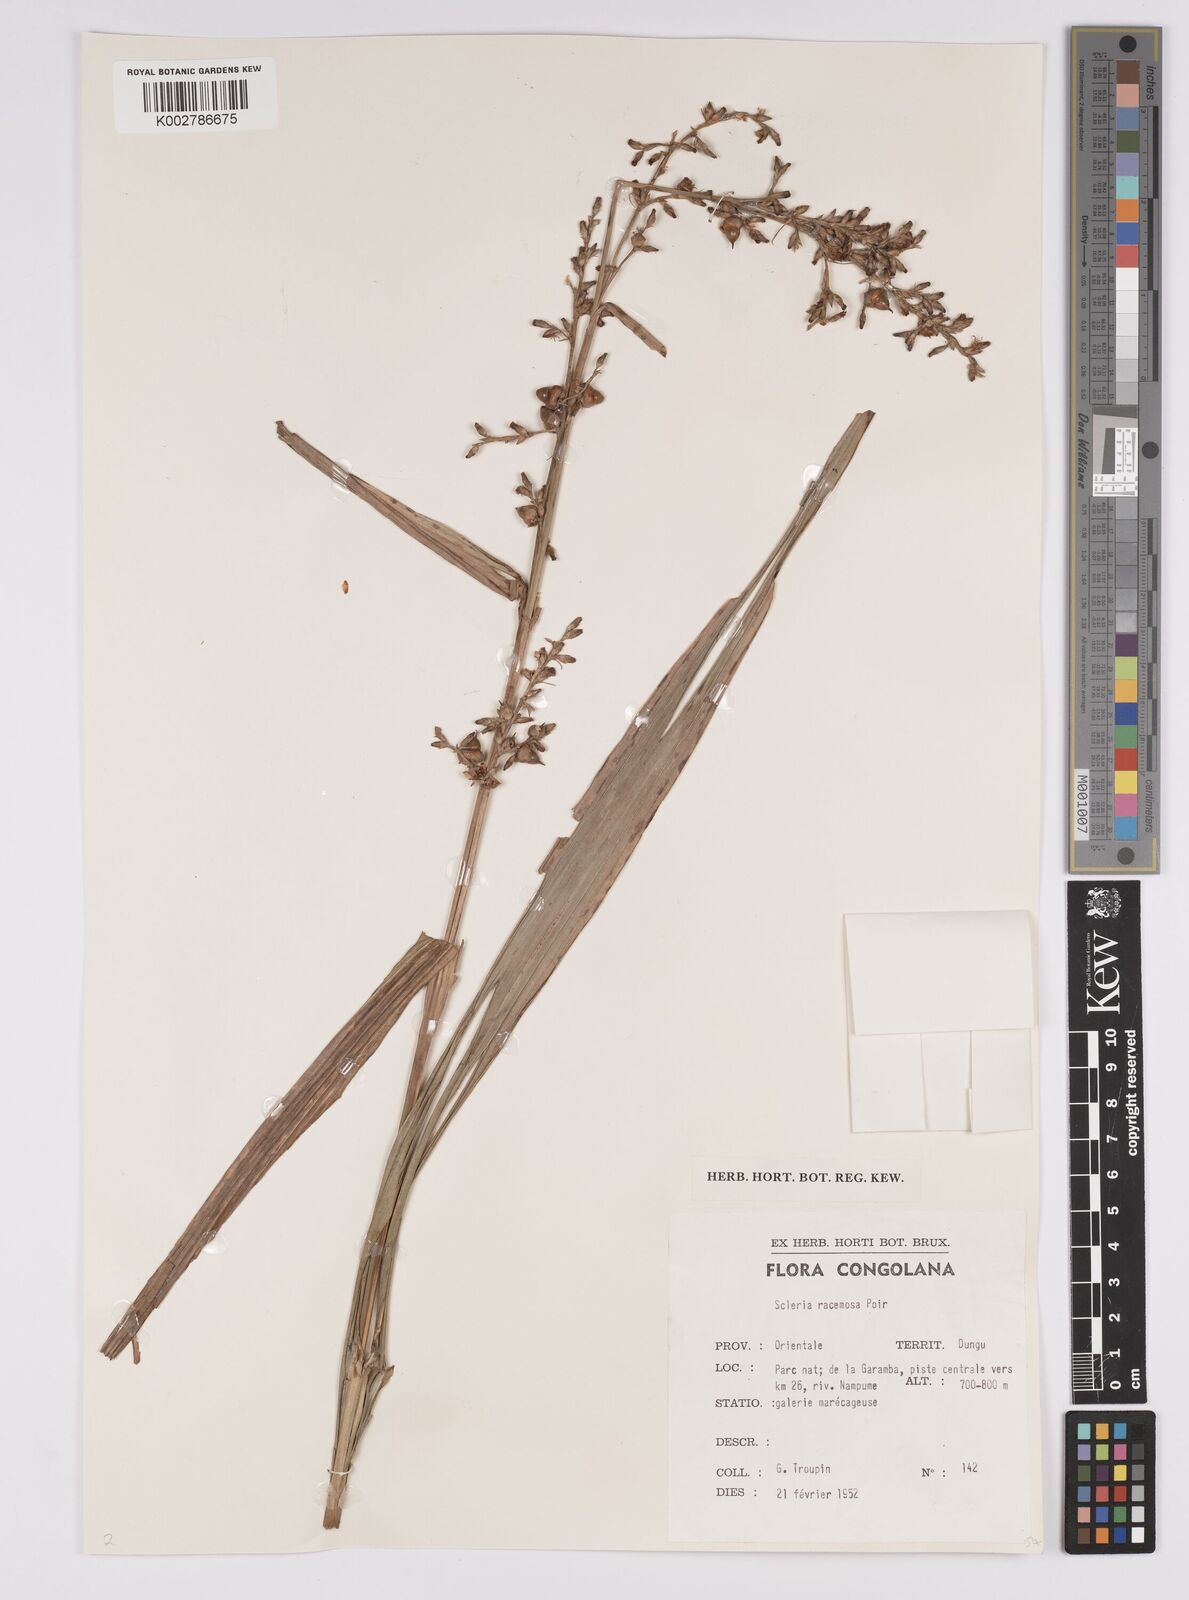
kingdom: Plantae
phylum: Tracheophyta
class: Liliopsida
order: Poales
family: Cyperaceae
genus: Scleria
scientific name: Scleria racemosa
